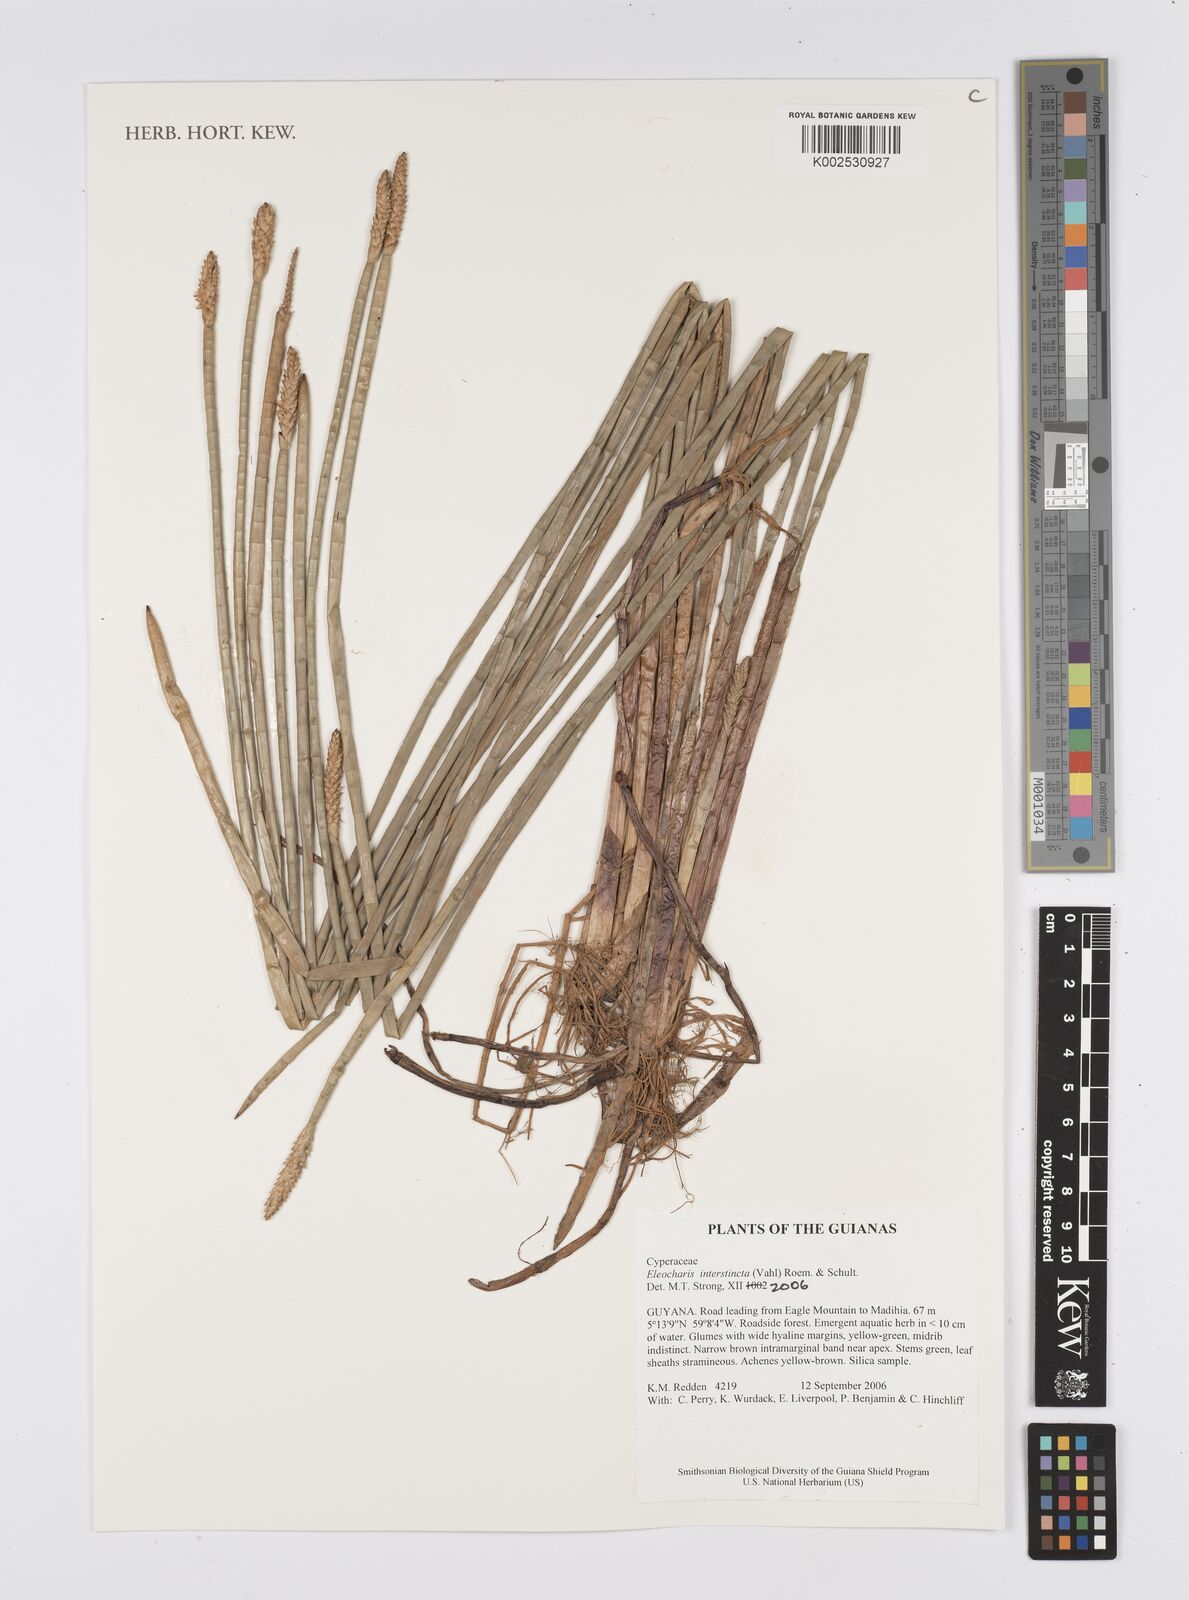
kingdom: Plantae
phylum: Tracheophyta
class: Liliopsida
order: Poales
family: Cyperaceae
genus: Eleocharis
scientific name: Eleocharis interstincta
